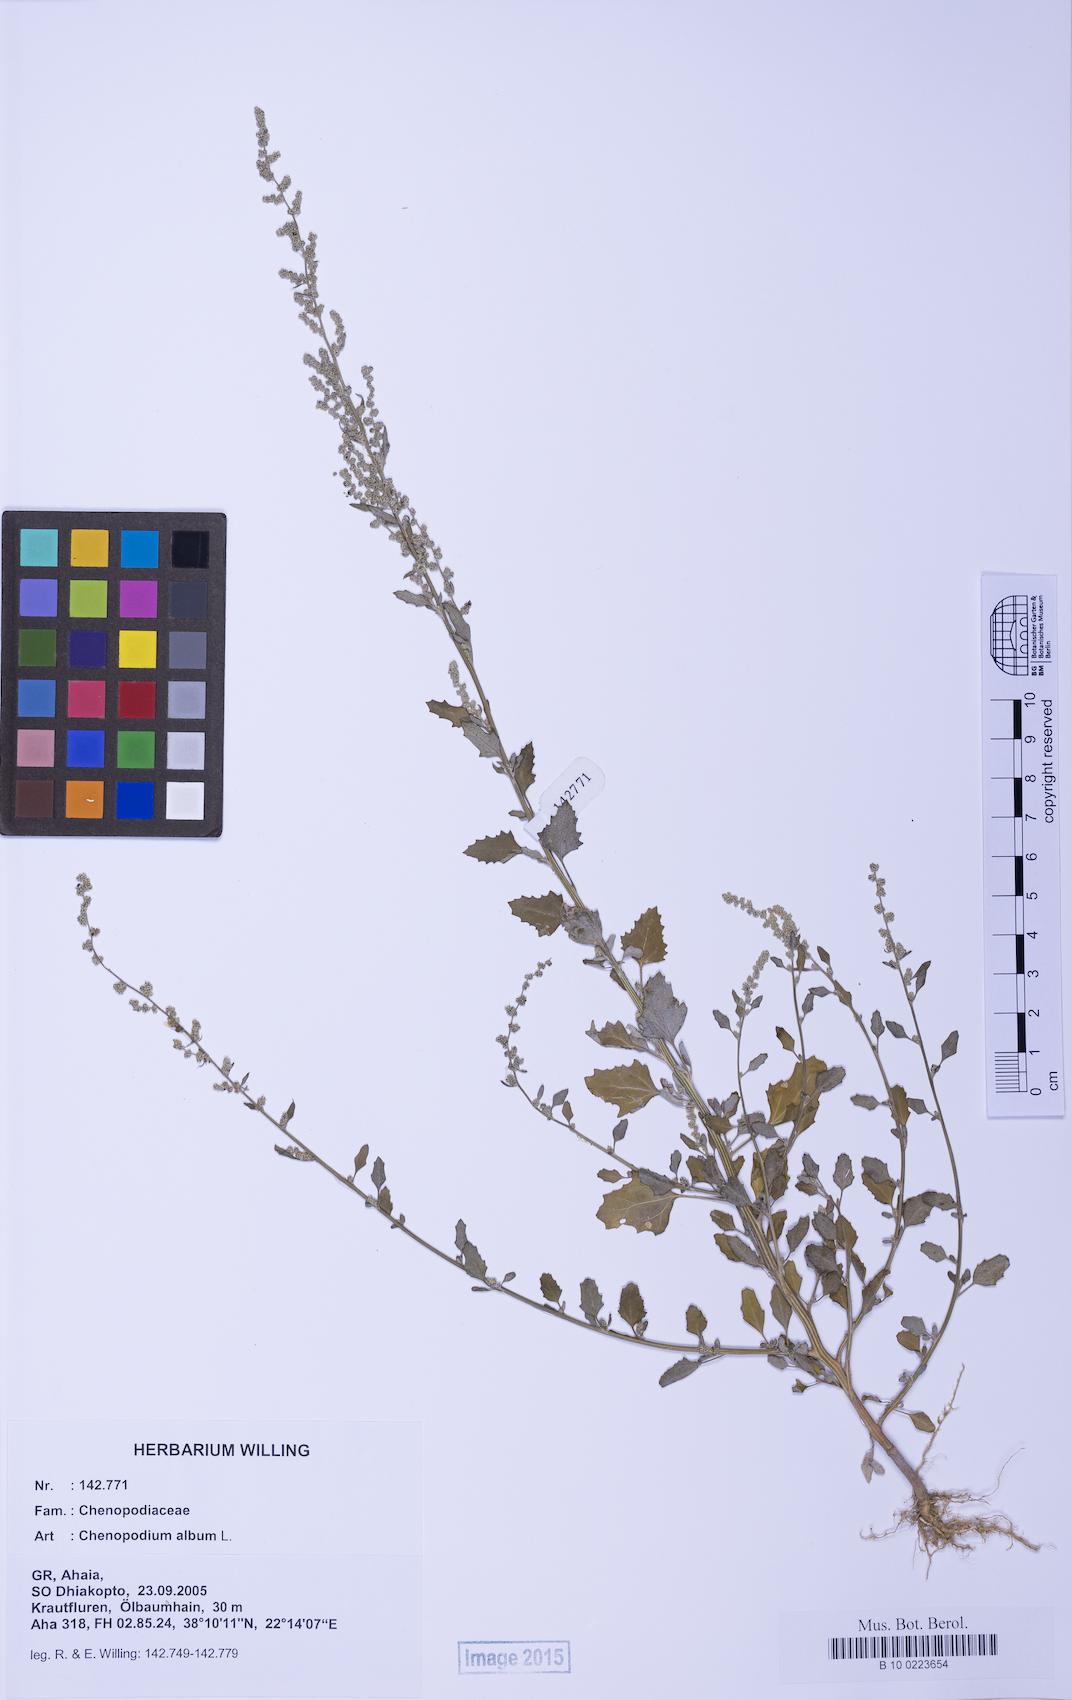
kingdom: Plantae
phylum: Tracheophyta
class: Magnoliopsida
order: Caryophyllales
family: Amaranthaceae
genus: Chenopodium
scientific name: Chenopodium album
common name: Fat-hen
